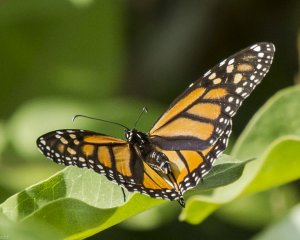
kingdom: Animalia
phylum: Arthropoda
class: Insecta
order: Lepidoptera
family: Nymphalidae
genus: Danaus
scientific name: Danaus plexippus
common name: Monarch
